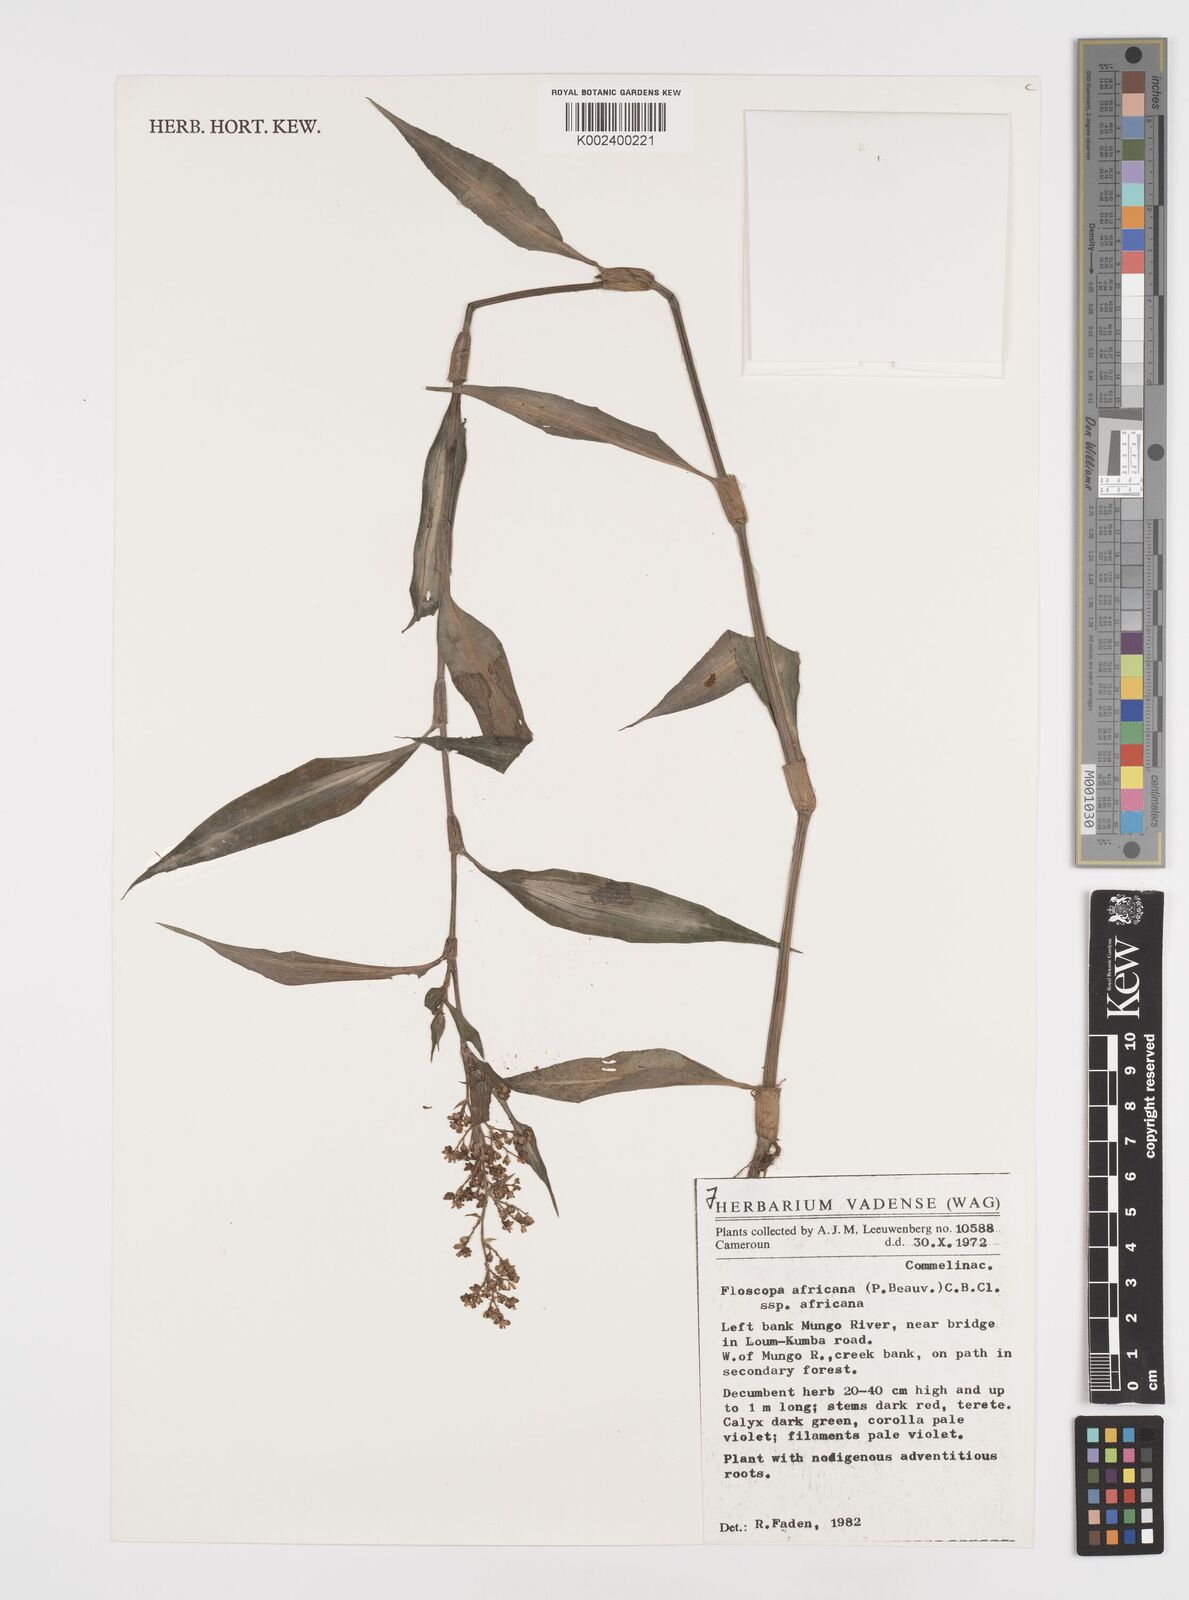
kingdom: Plantae
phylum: Tracheophyta
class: Liliopsida
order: Commelinales
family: Commelinaceae
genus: Floscopa
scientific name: Floscopa africana
